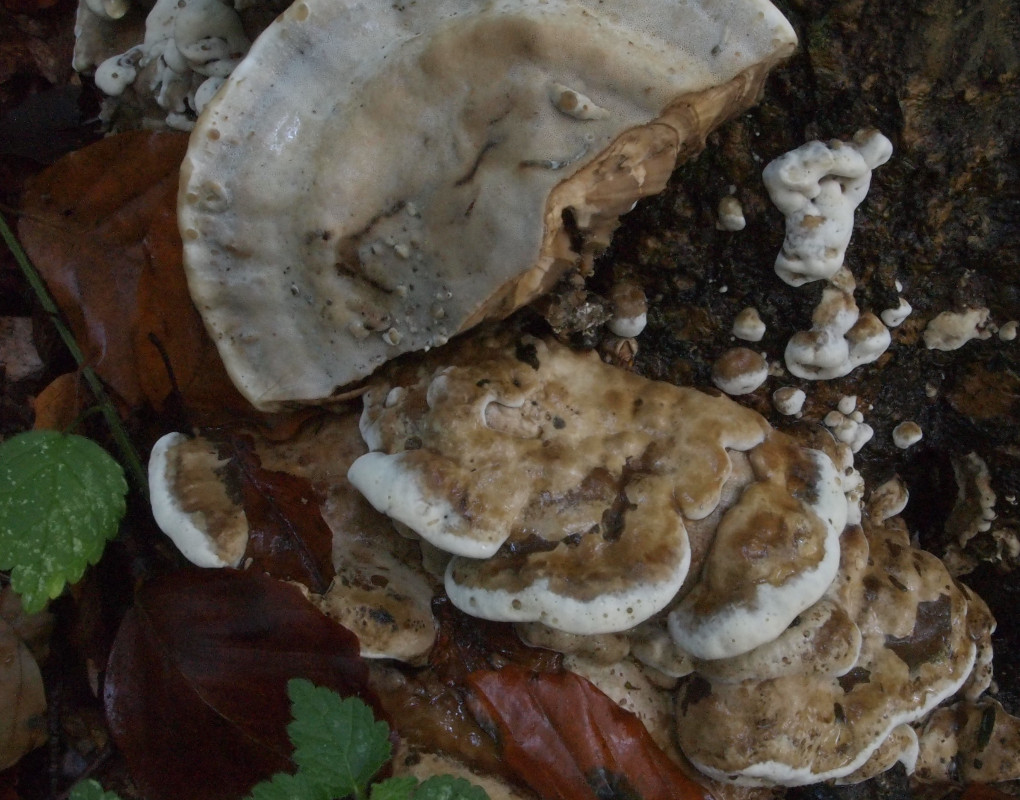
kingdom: Fungi
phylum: Basidiomycota
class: Agaricomycetes
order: Polyporales
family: Phanerochaetaceae
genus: Bjerkandera
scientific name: Bjerkandera fumosa
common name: grågul sodporesvamp
